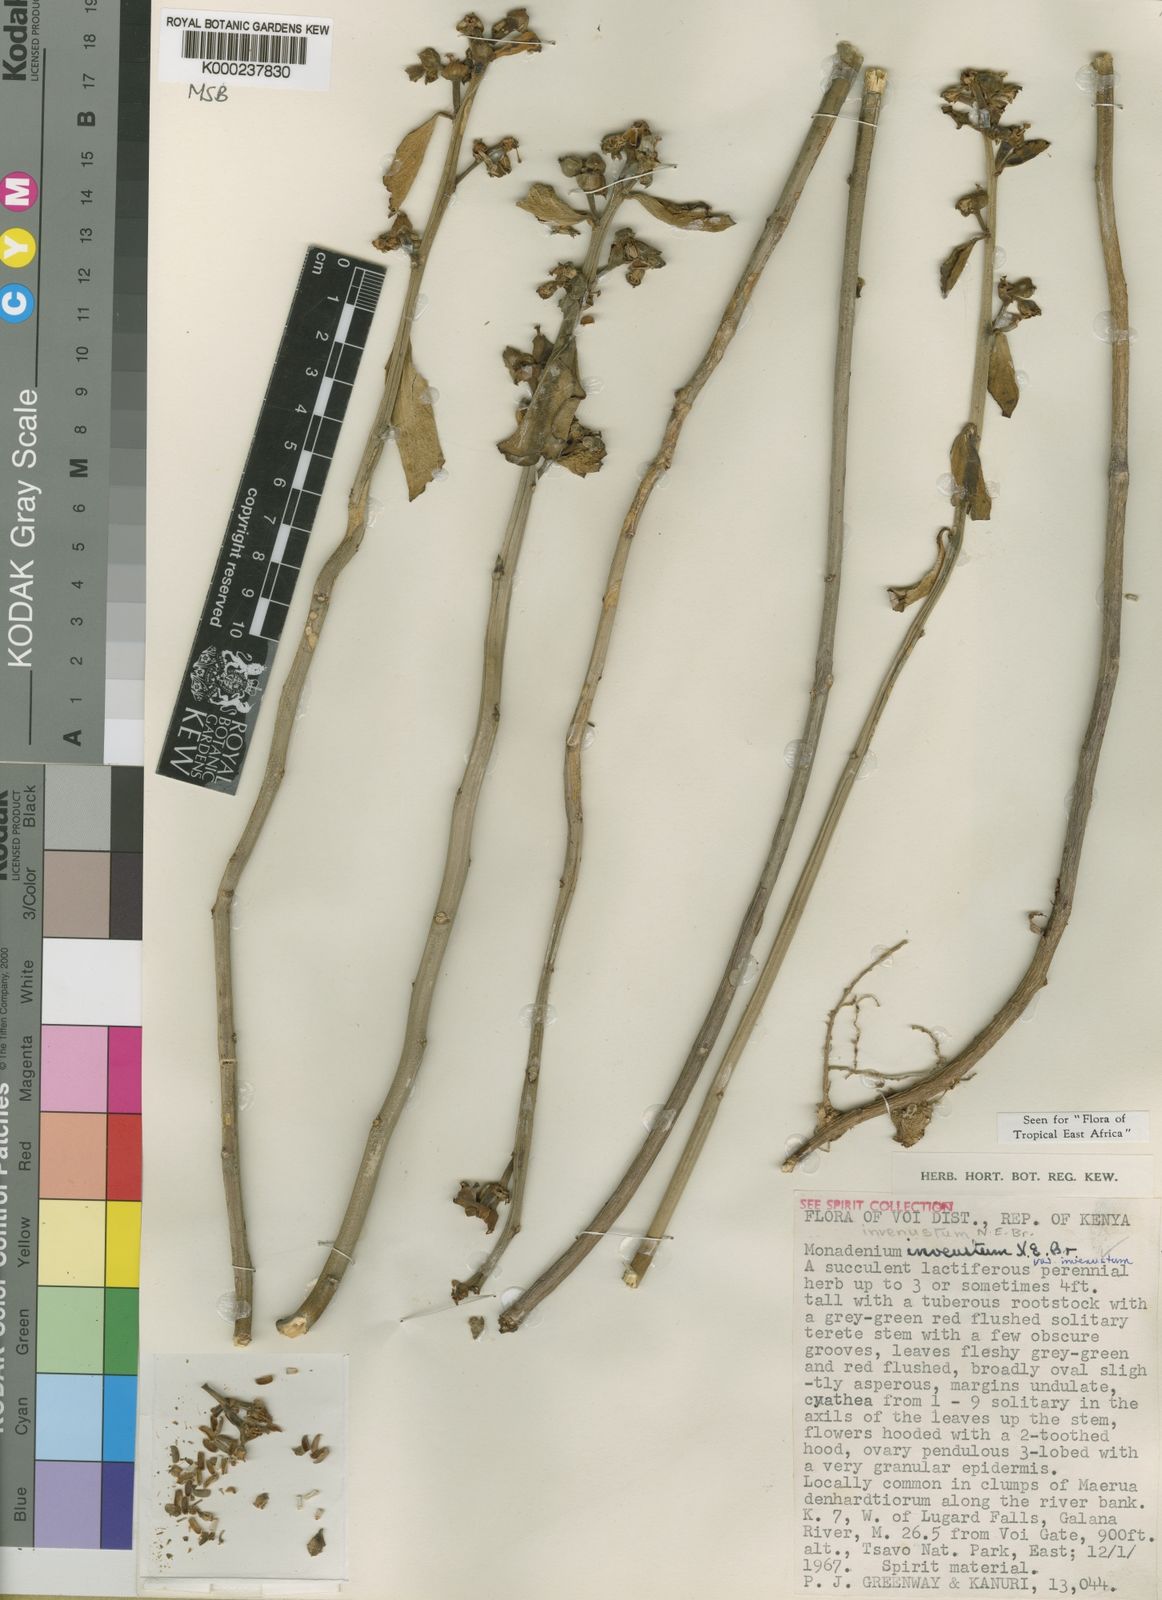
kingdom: Plantae
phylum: Tracheophyta
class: Magnoliopsida
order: Malpighiales
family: Euphorbiaceae
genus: Euphorbia
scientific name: Euphorbia invenusta
